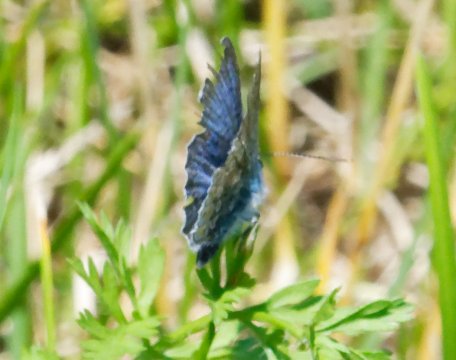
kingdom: Animalia
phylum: Arthropoda
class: Insecta
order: Lepidoptera
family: Lycaenidae
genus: Polyommatus
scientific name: Polyommatus icarus
